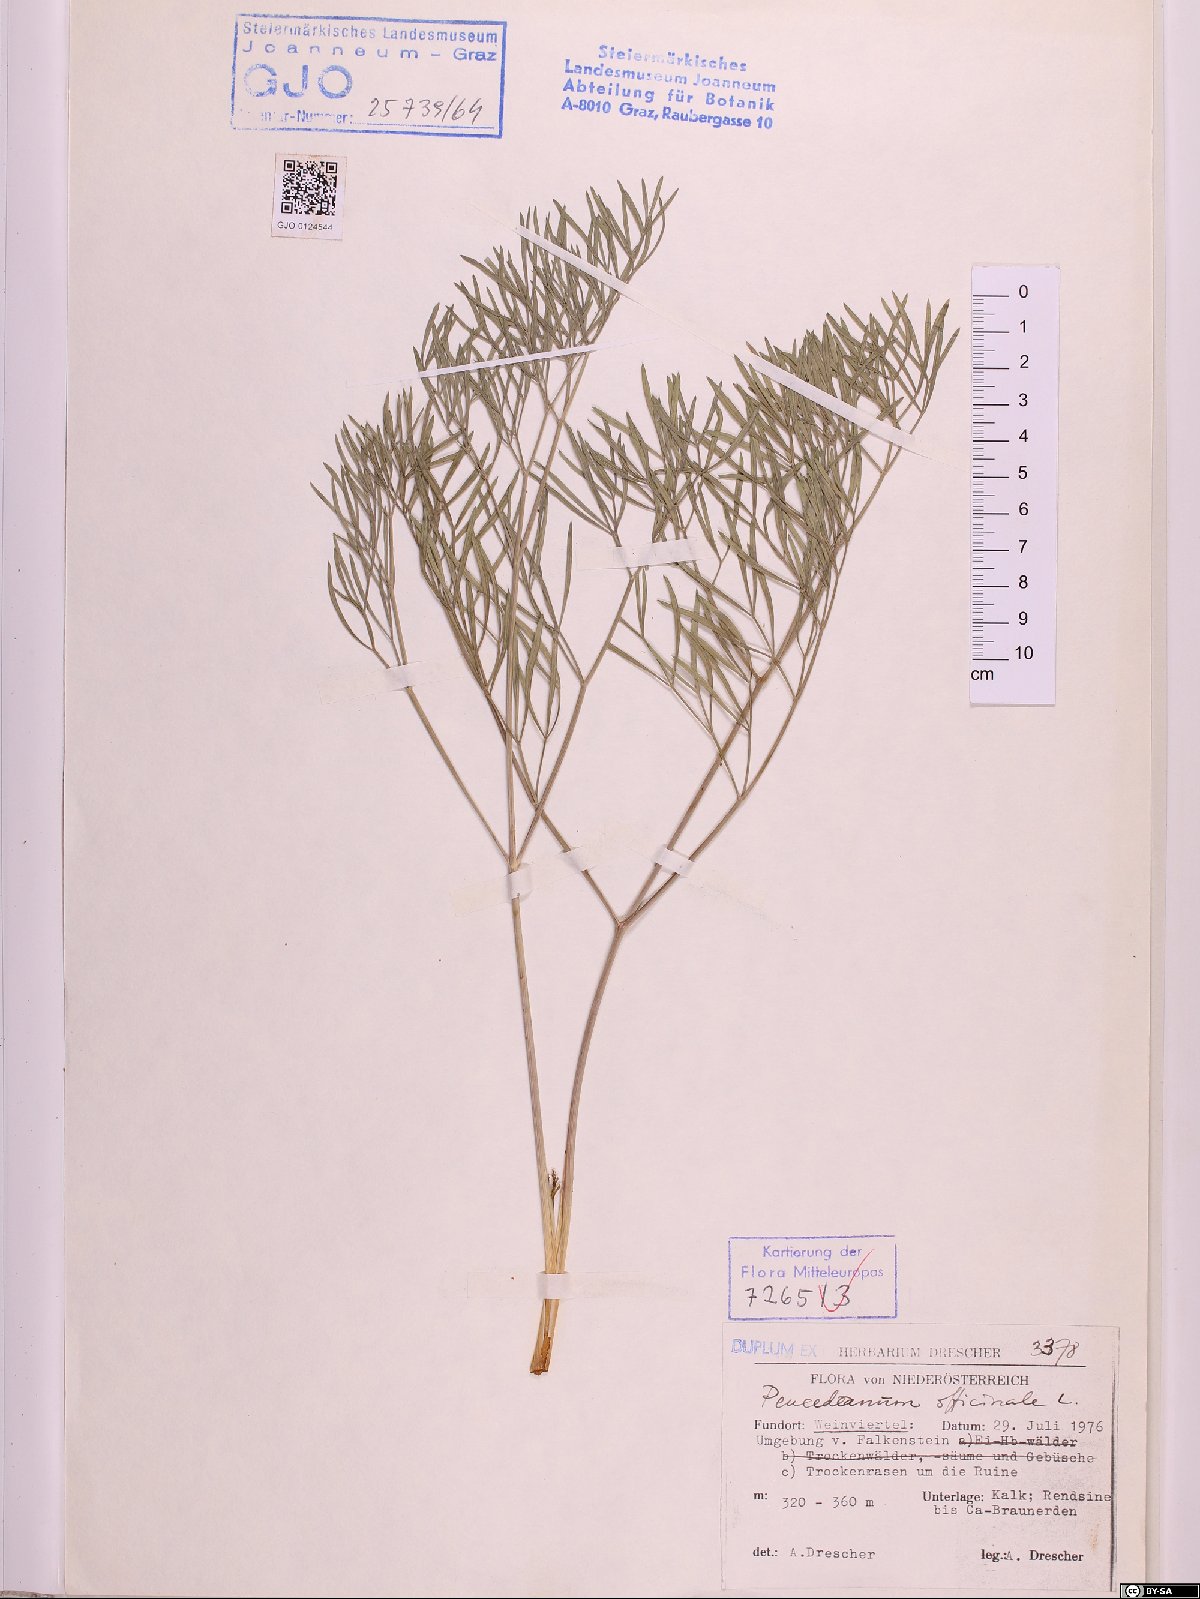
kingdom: Plantae
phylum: Tracheophyta
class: Magnoliopsida
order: Apiales
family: Apiaceae
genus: Peucedanum
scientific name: Peucedanum officinale
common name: Sulphurweed
